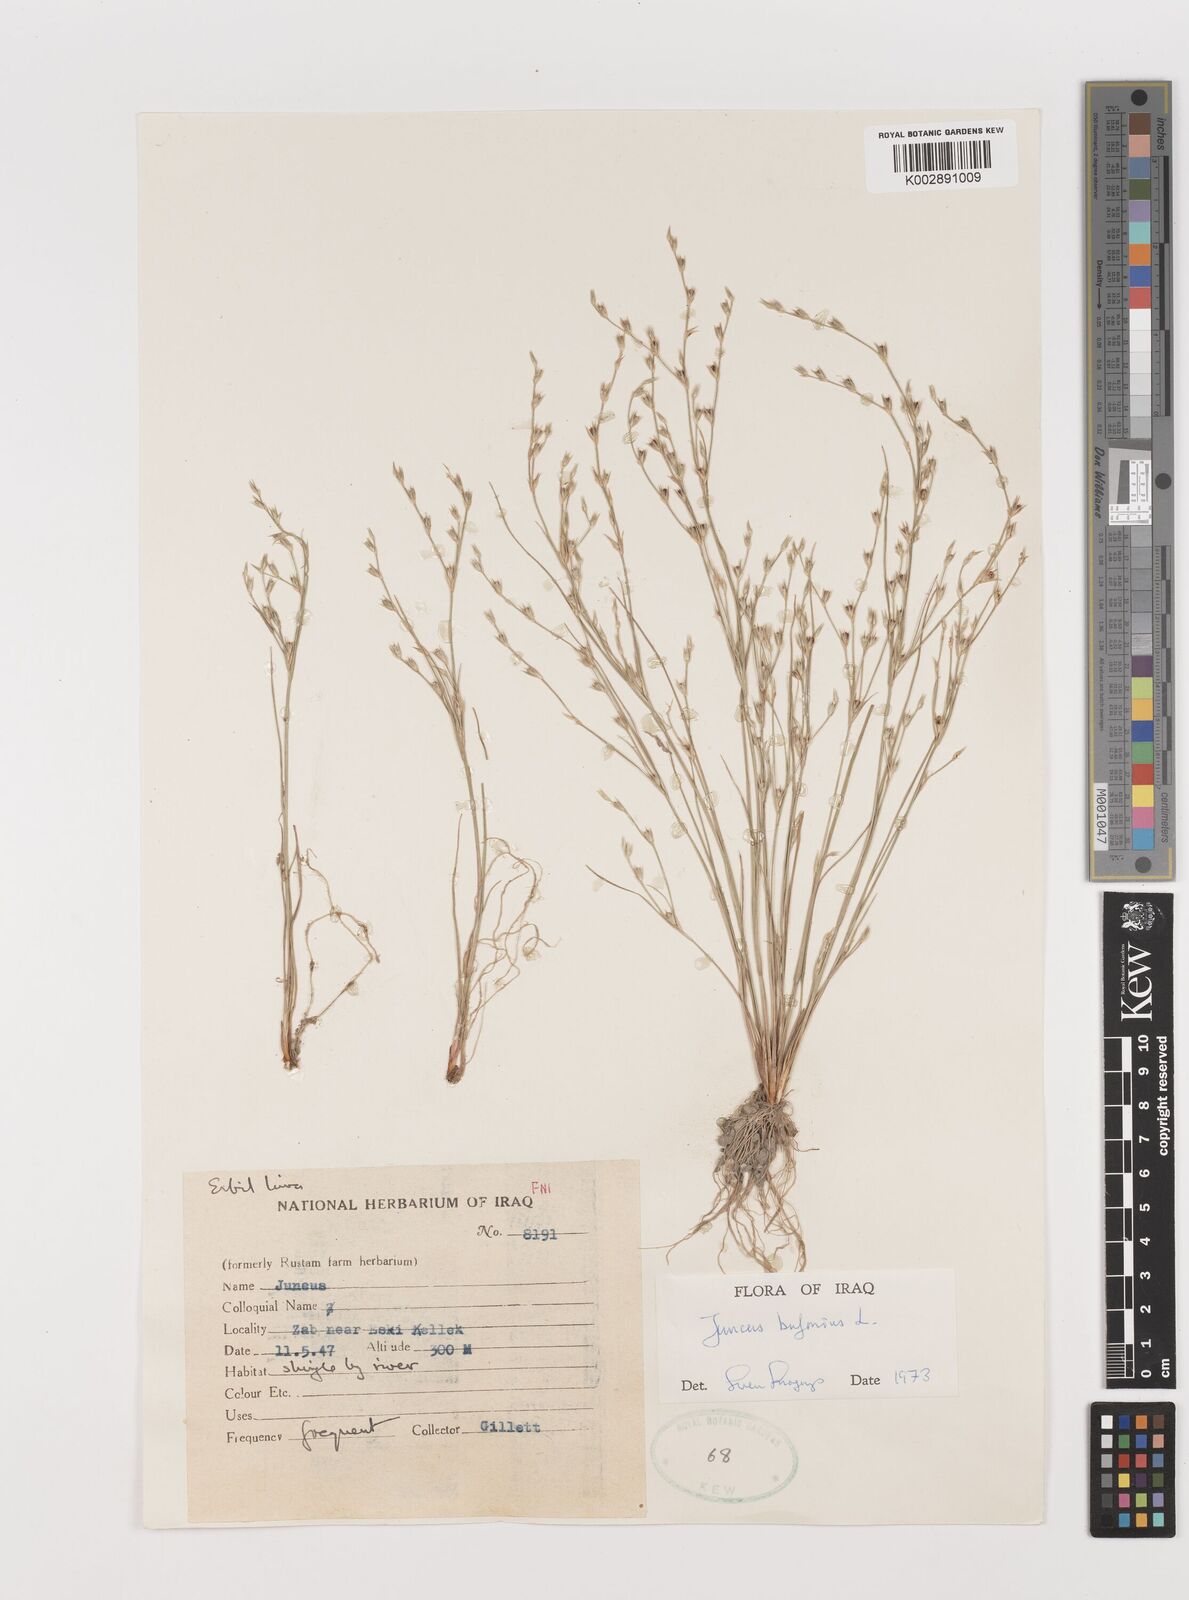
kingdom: Plantae
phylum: Tracheophyta
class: Liliopsida
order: Poales
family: Juncaceae
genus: Juncus
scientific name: Juncus bufonius
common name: Toad rush
